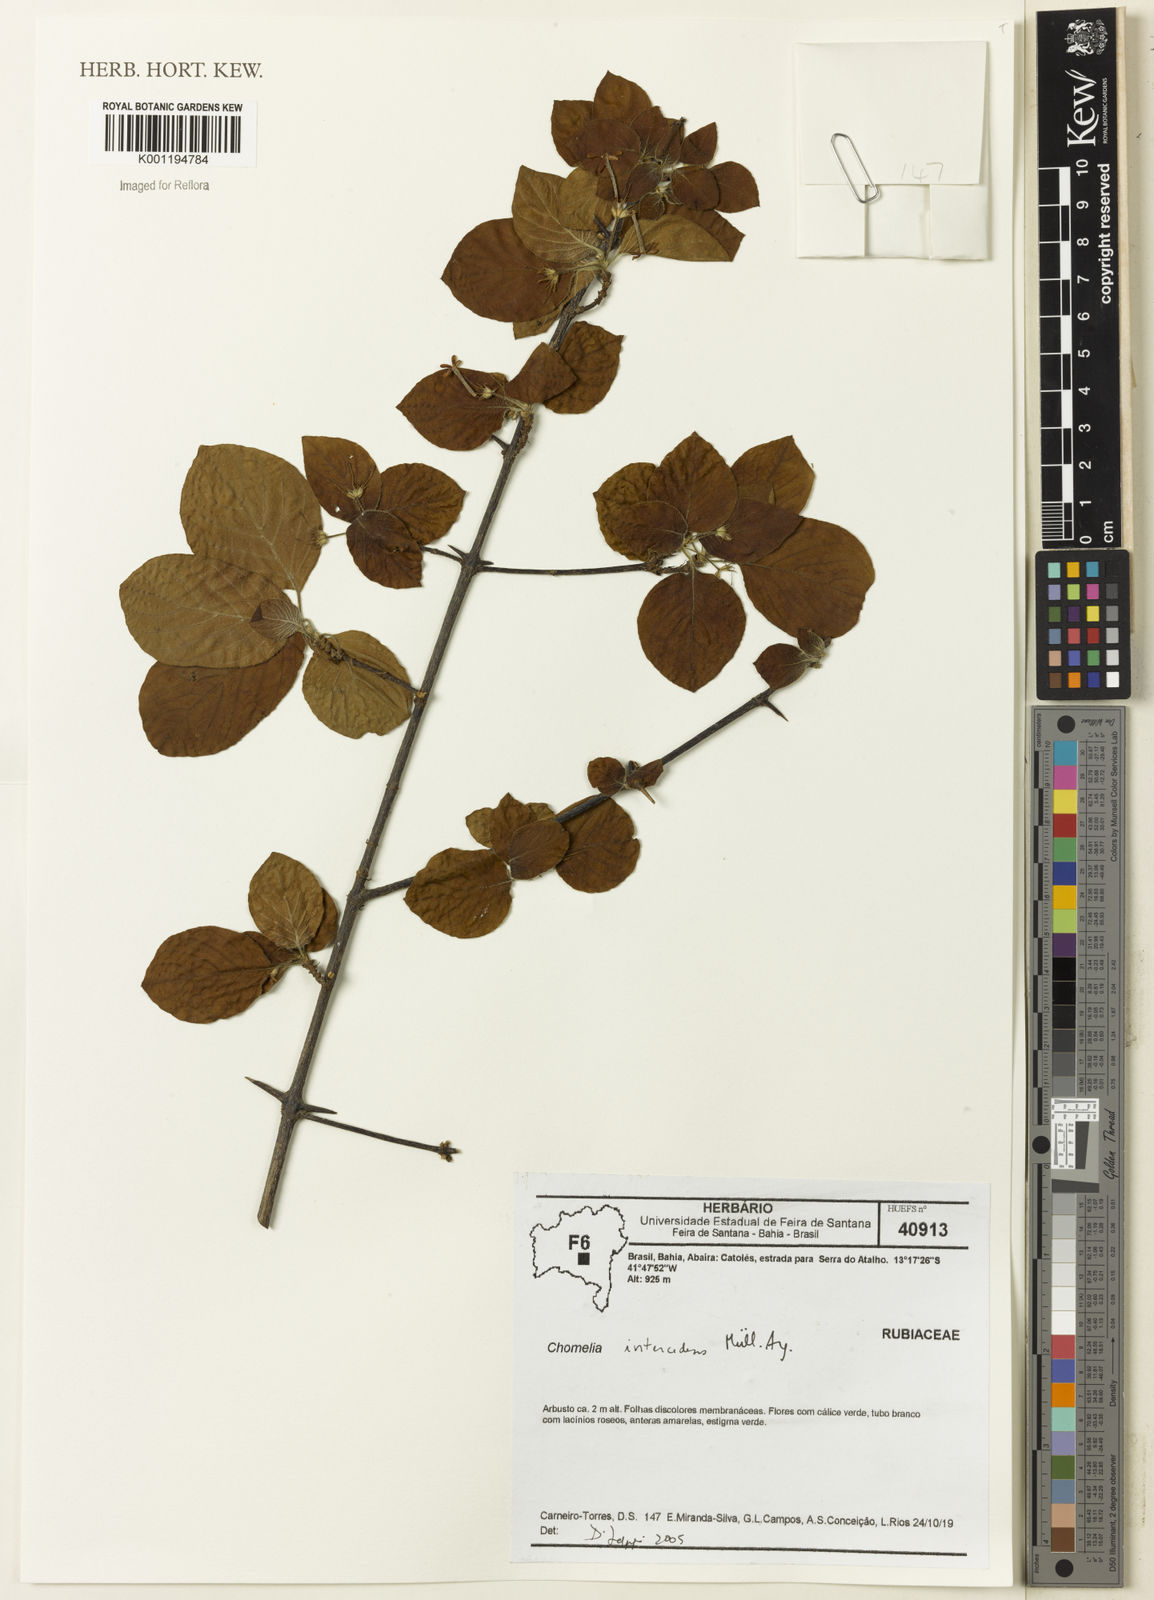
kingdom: Plantae
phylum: Tracheophyta
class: Magnoliopsida
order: Gentianales
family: Rubiaceae
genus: Chomelia
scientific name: Chomelia
